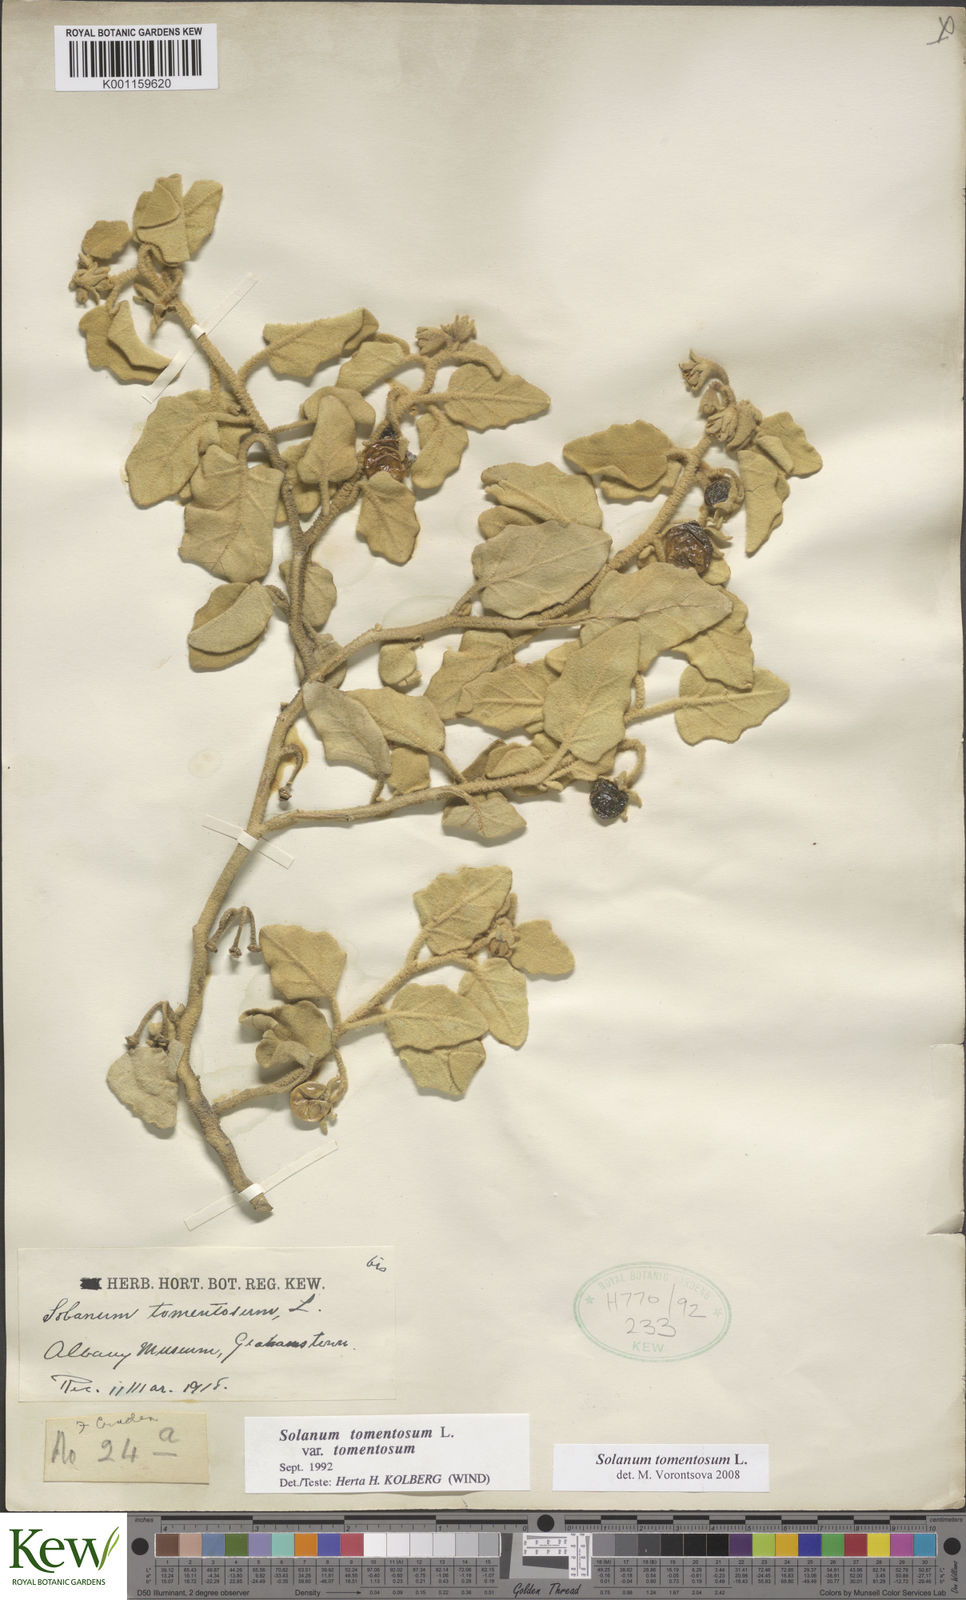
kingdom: Plantae
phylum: Tracheophyta
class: Magnoliopsida
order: Solanales
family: Solanaceae
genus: Solanum
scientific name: Solanum tomentosum
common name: Wild aubergine
